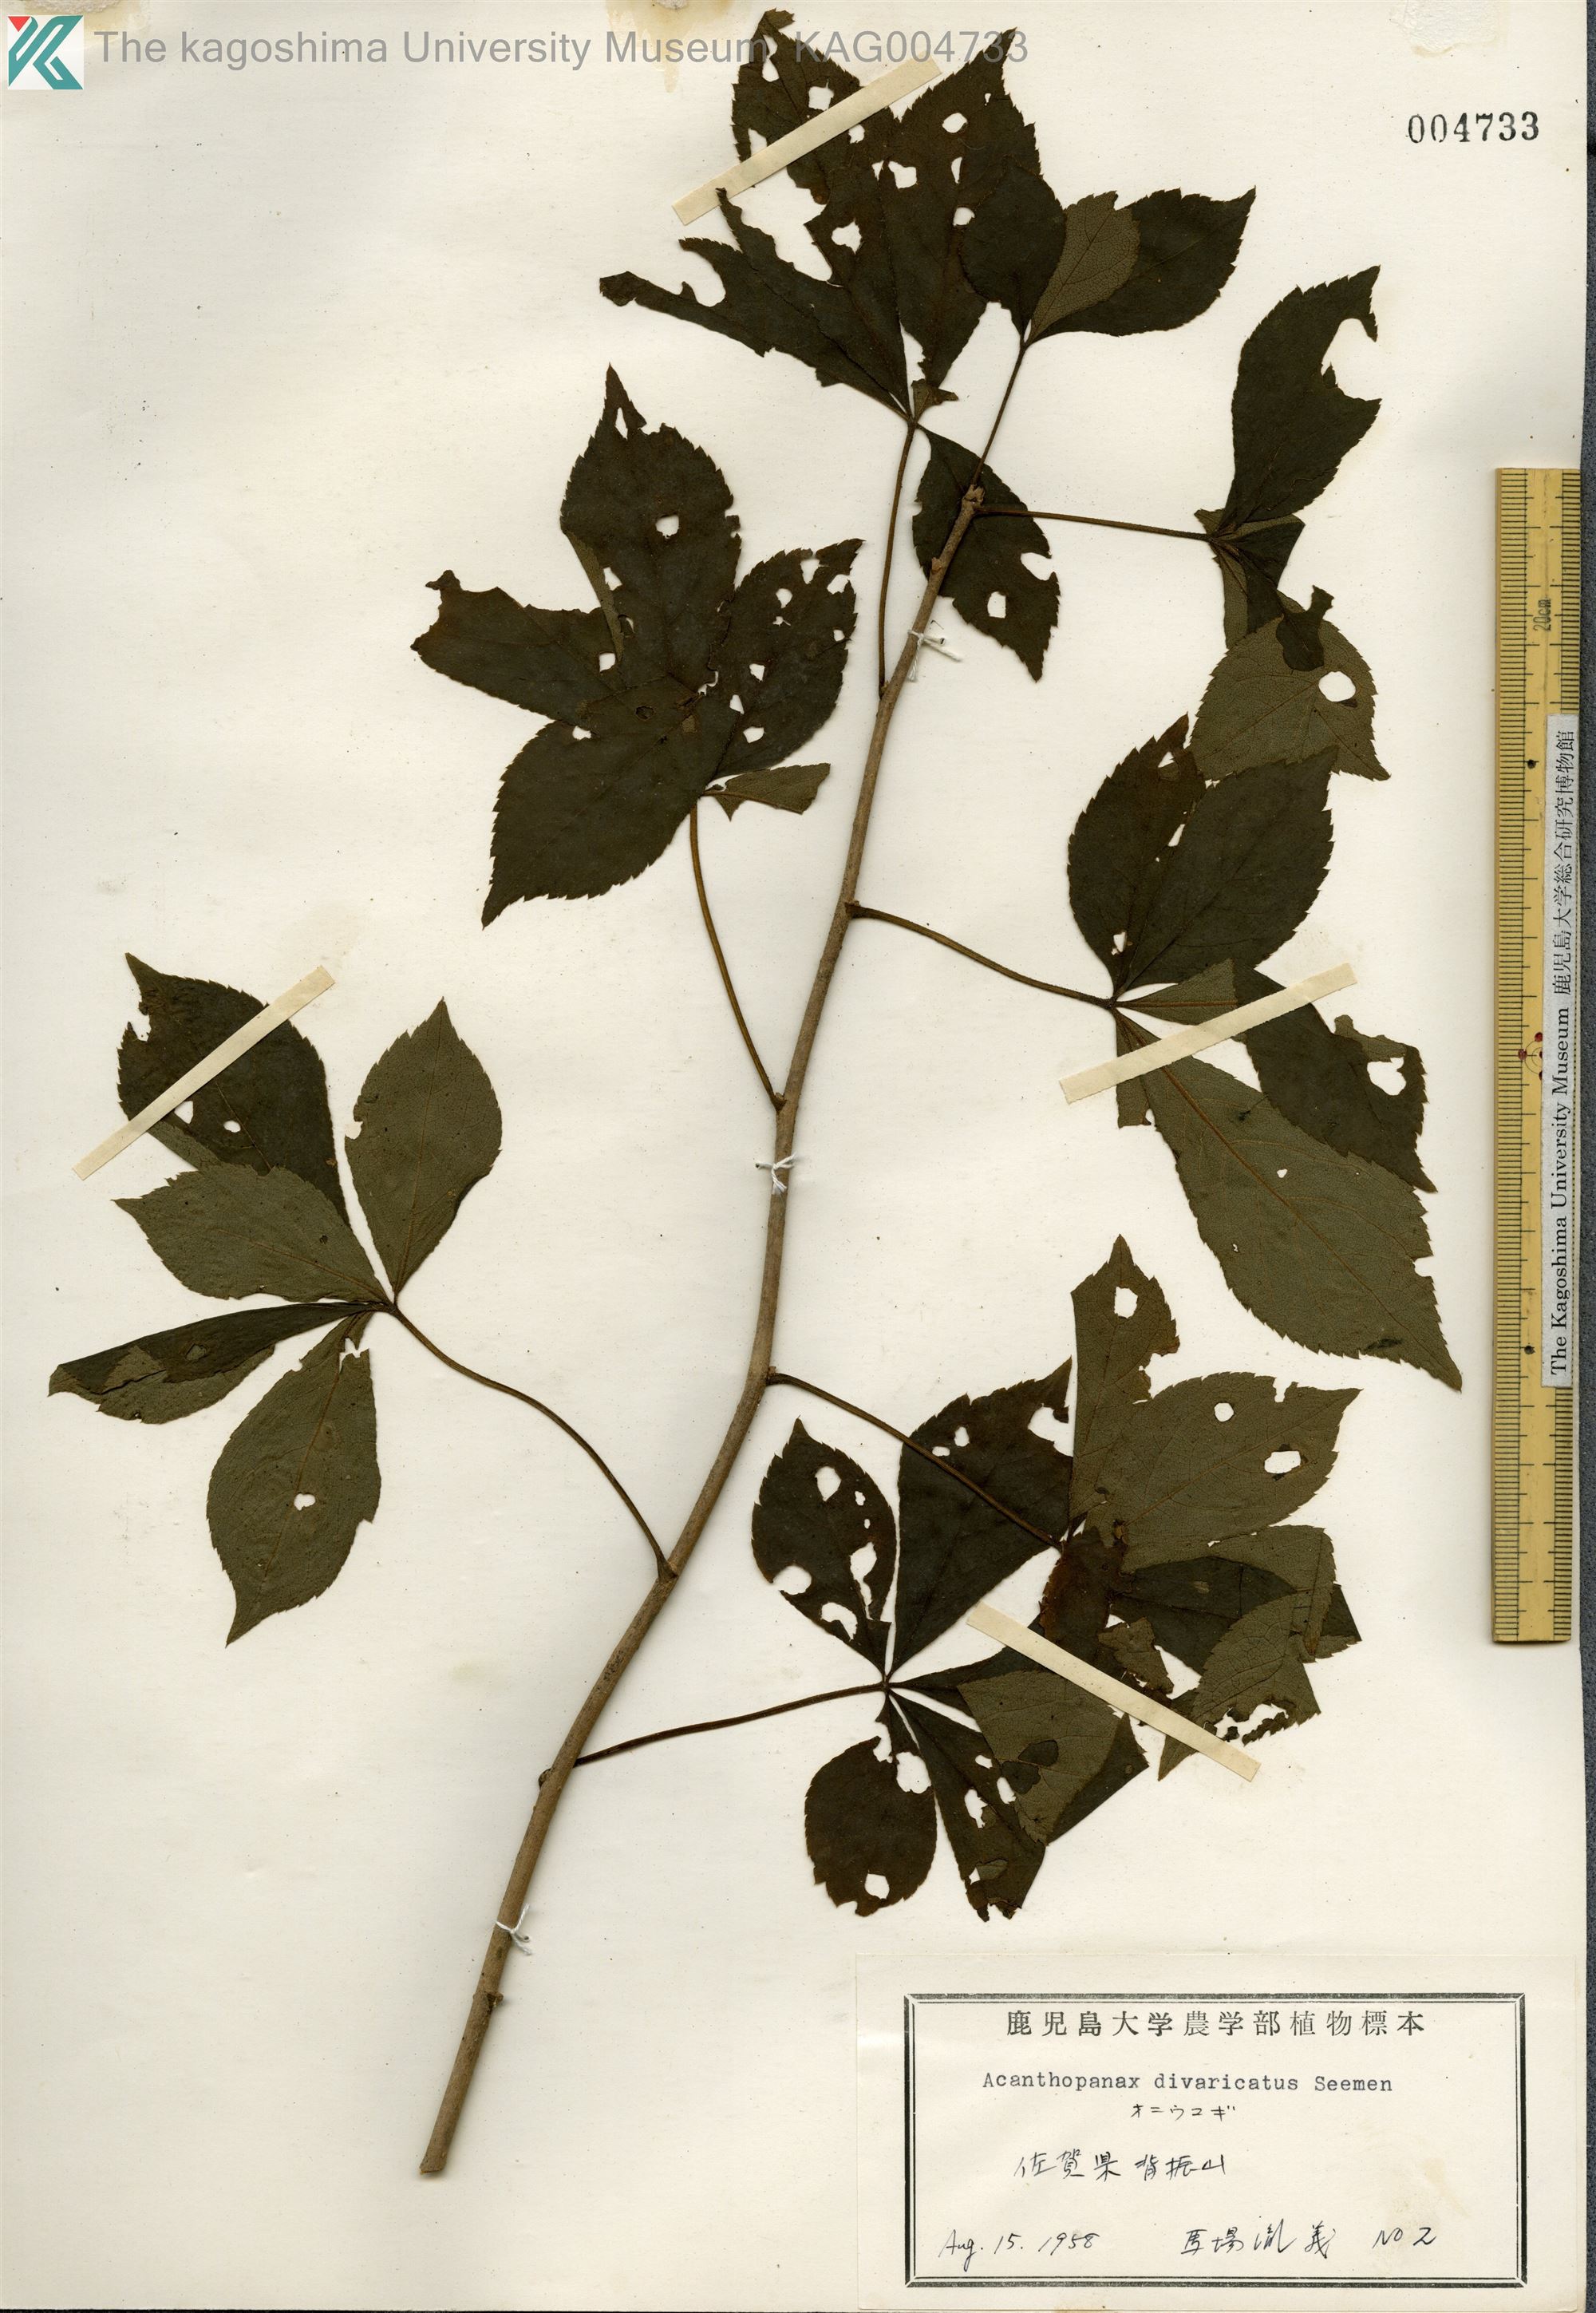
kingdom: Plantae
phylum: Tracheophyta
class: Magnoliopsida
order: Apiales
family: Araliaceae
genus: Eleutherococcus
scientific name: Eleutherococcus divaricatus
